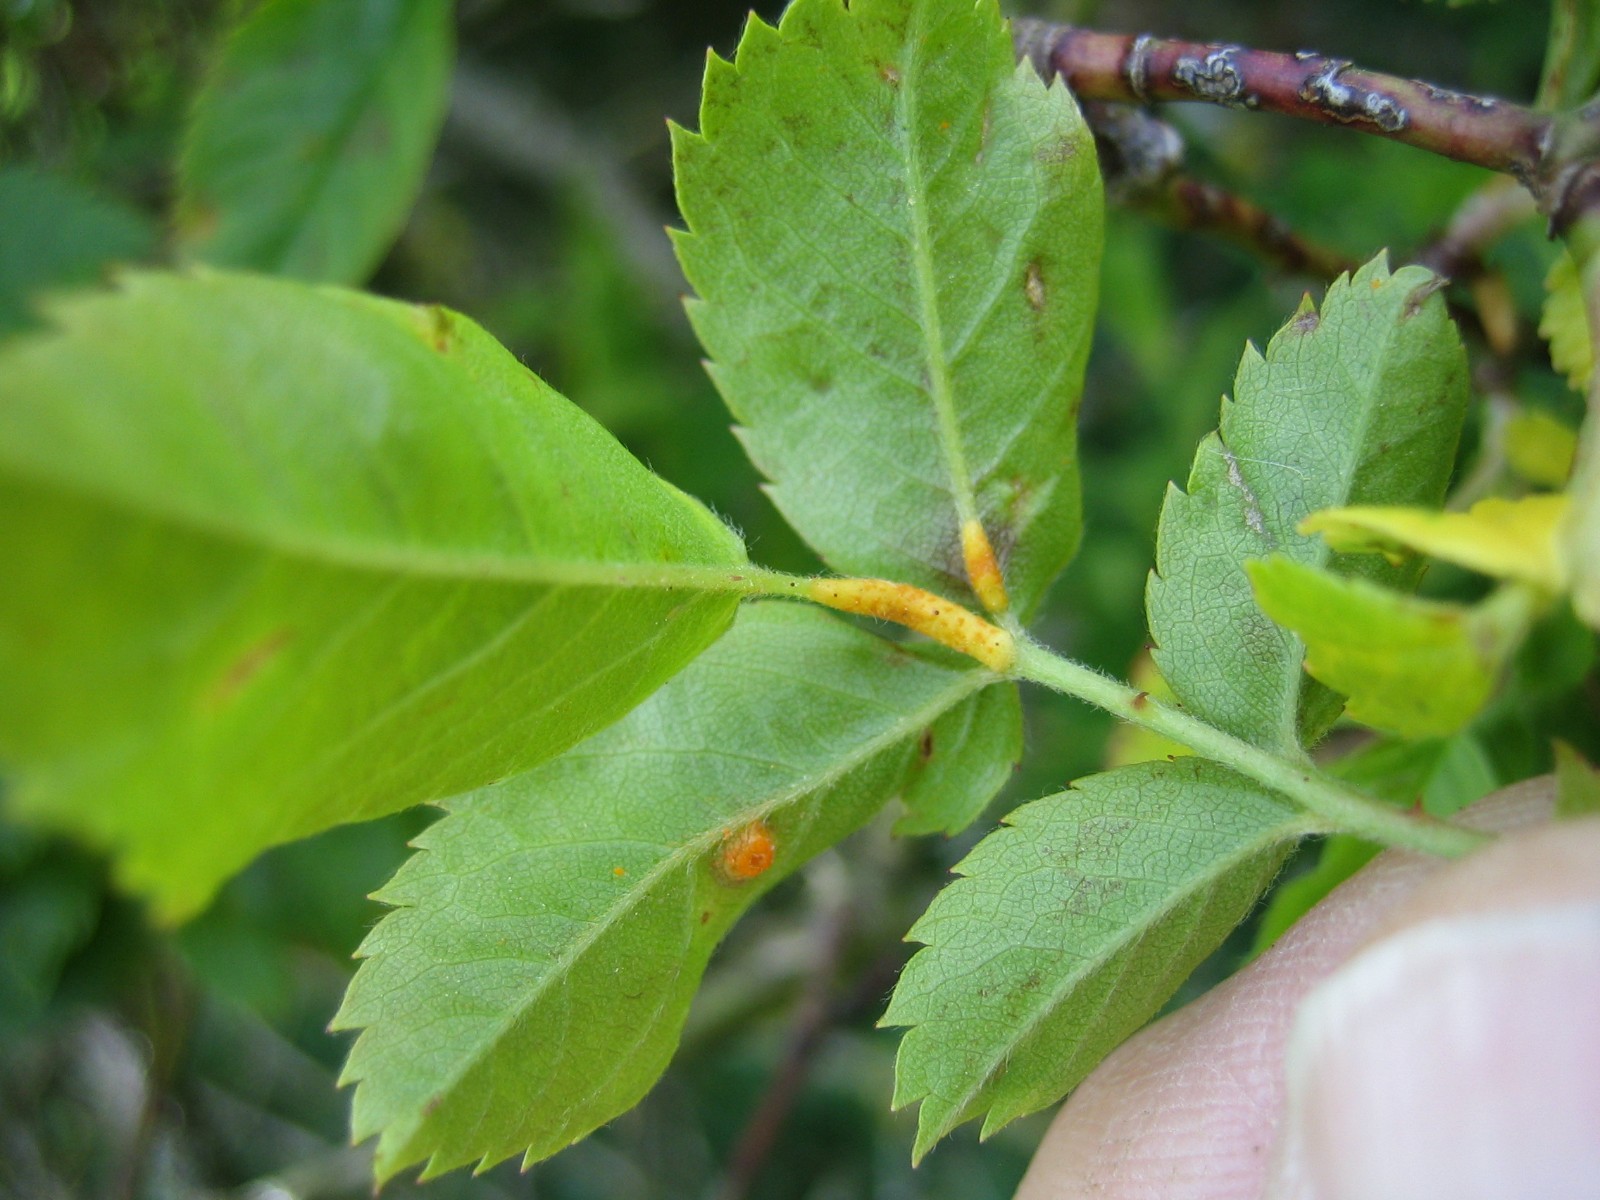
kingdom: Fungi
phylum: Basidiomycota
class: Pucciniomycetes
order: Pucciniales
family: Phragmidiaceae
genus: Phragmidium
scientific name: Phragmidium
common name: flercellerust
